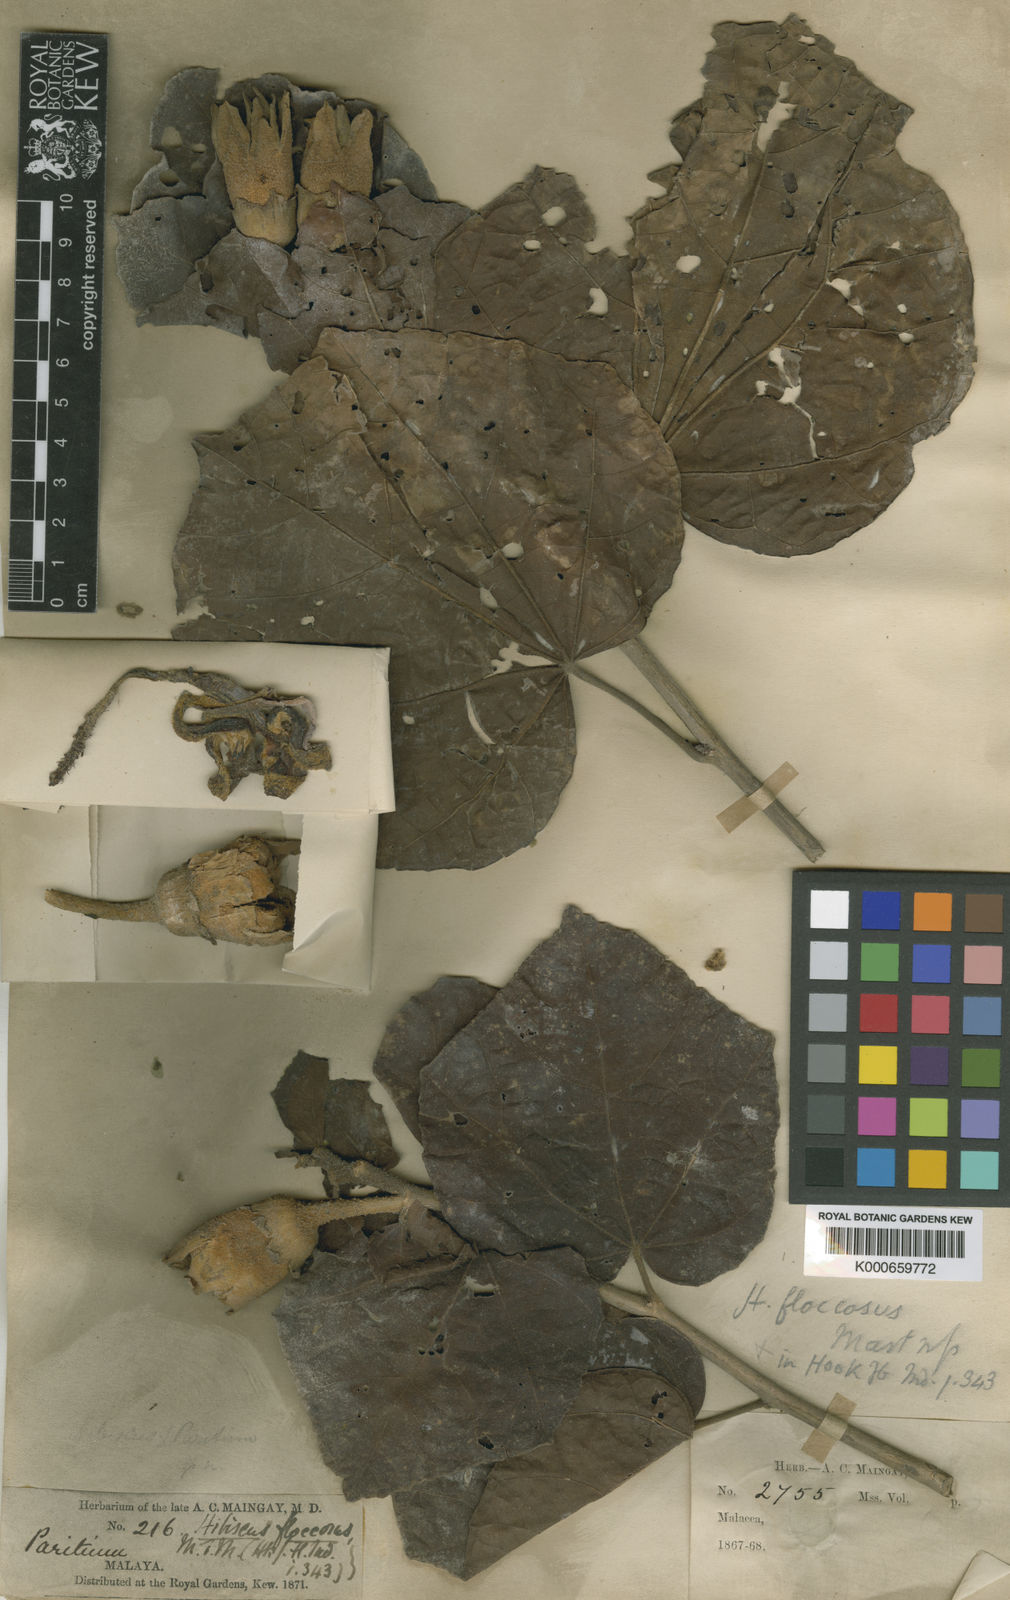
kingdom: Plantae
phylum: Tracheophyta
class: Magnoliopsida
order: Malvales
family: Malvaceae
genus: Hibiscus
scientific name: Hibiscus floccosus
